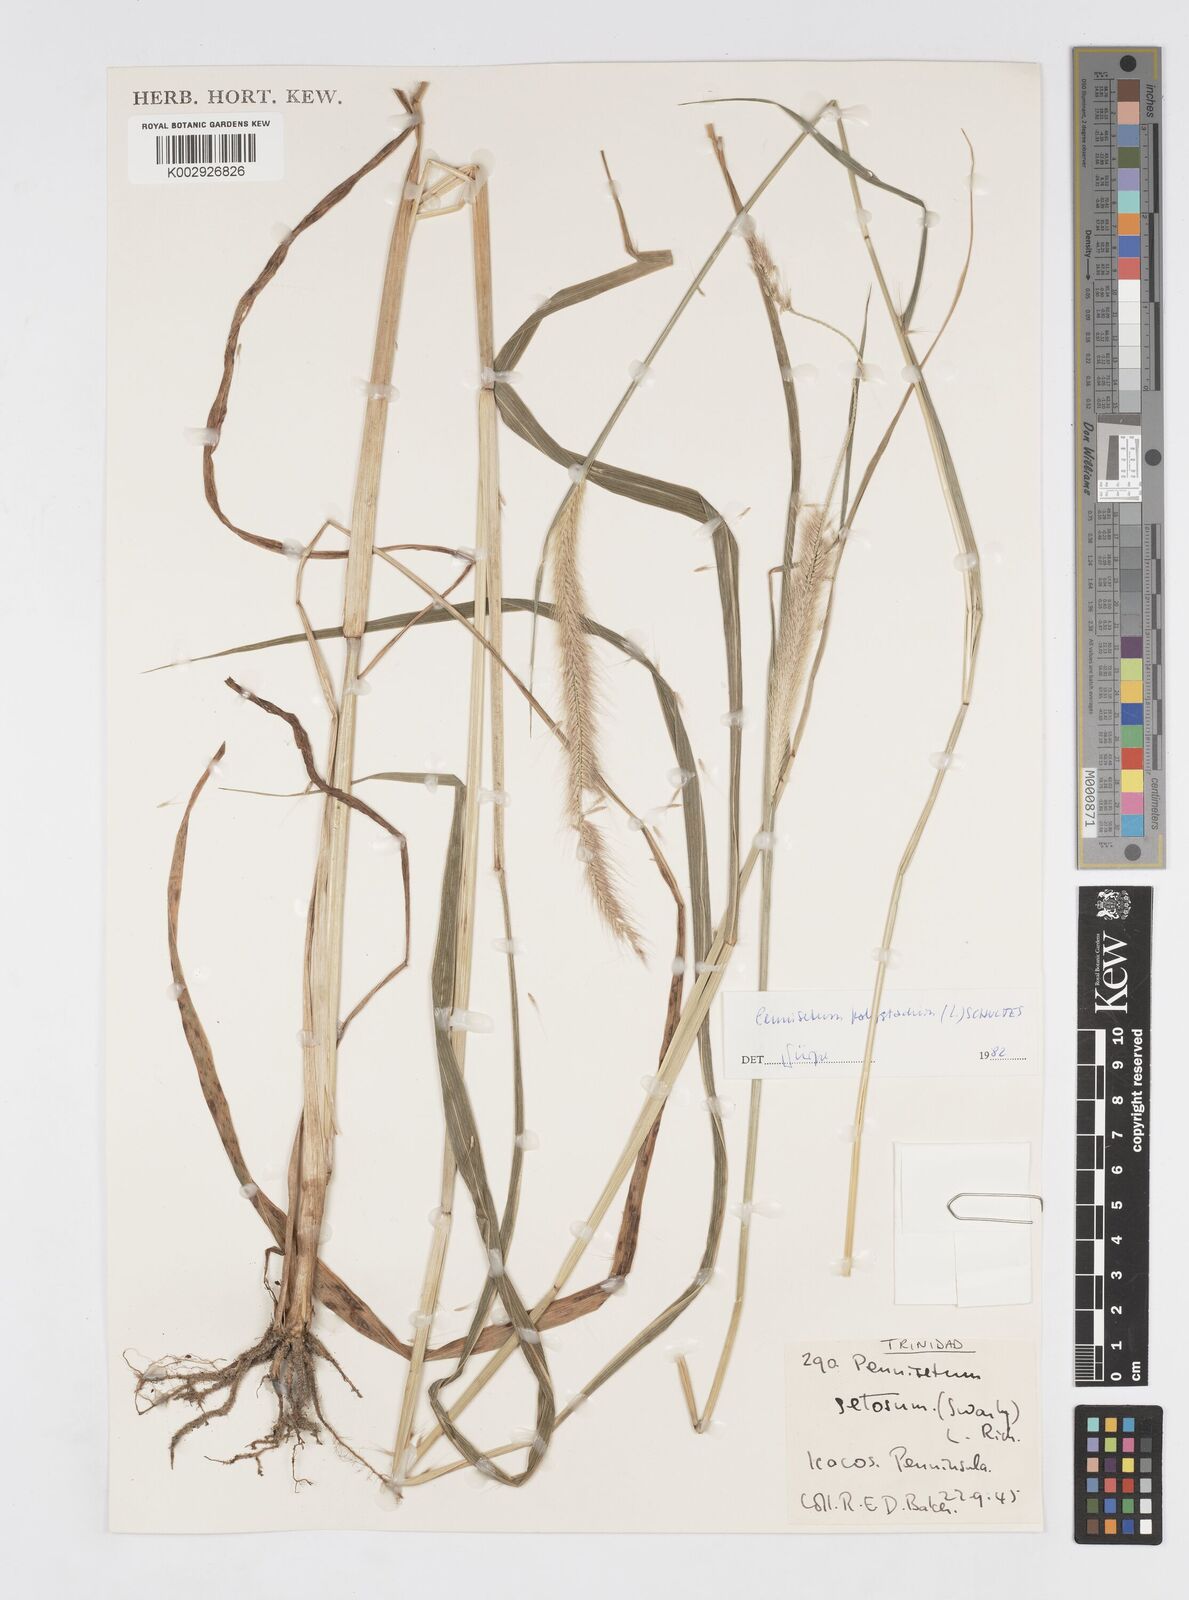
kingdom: Plantae
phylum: Tracheophyta
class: Liliopsida
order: Poales
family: Poaceae
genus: Cenchrus
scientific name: Cenchrus setosus
